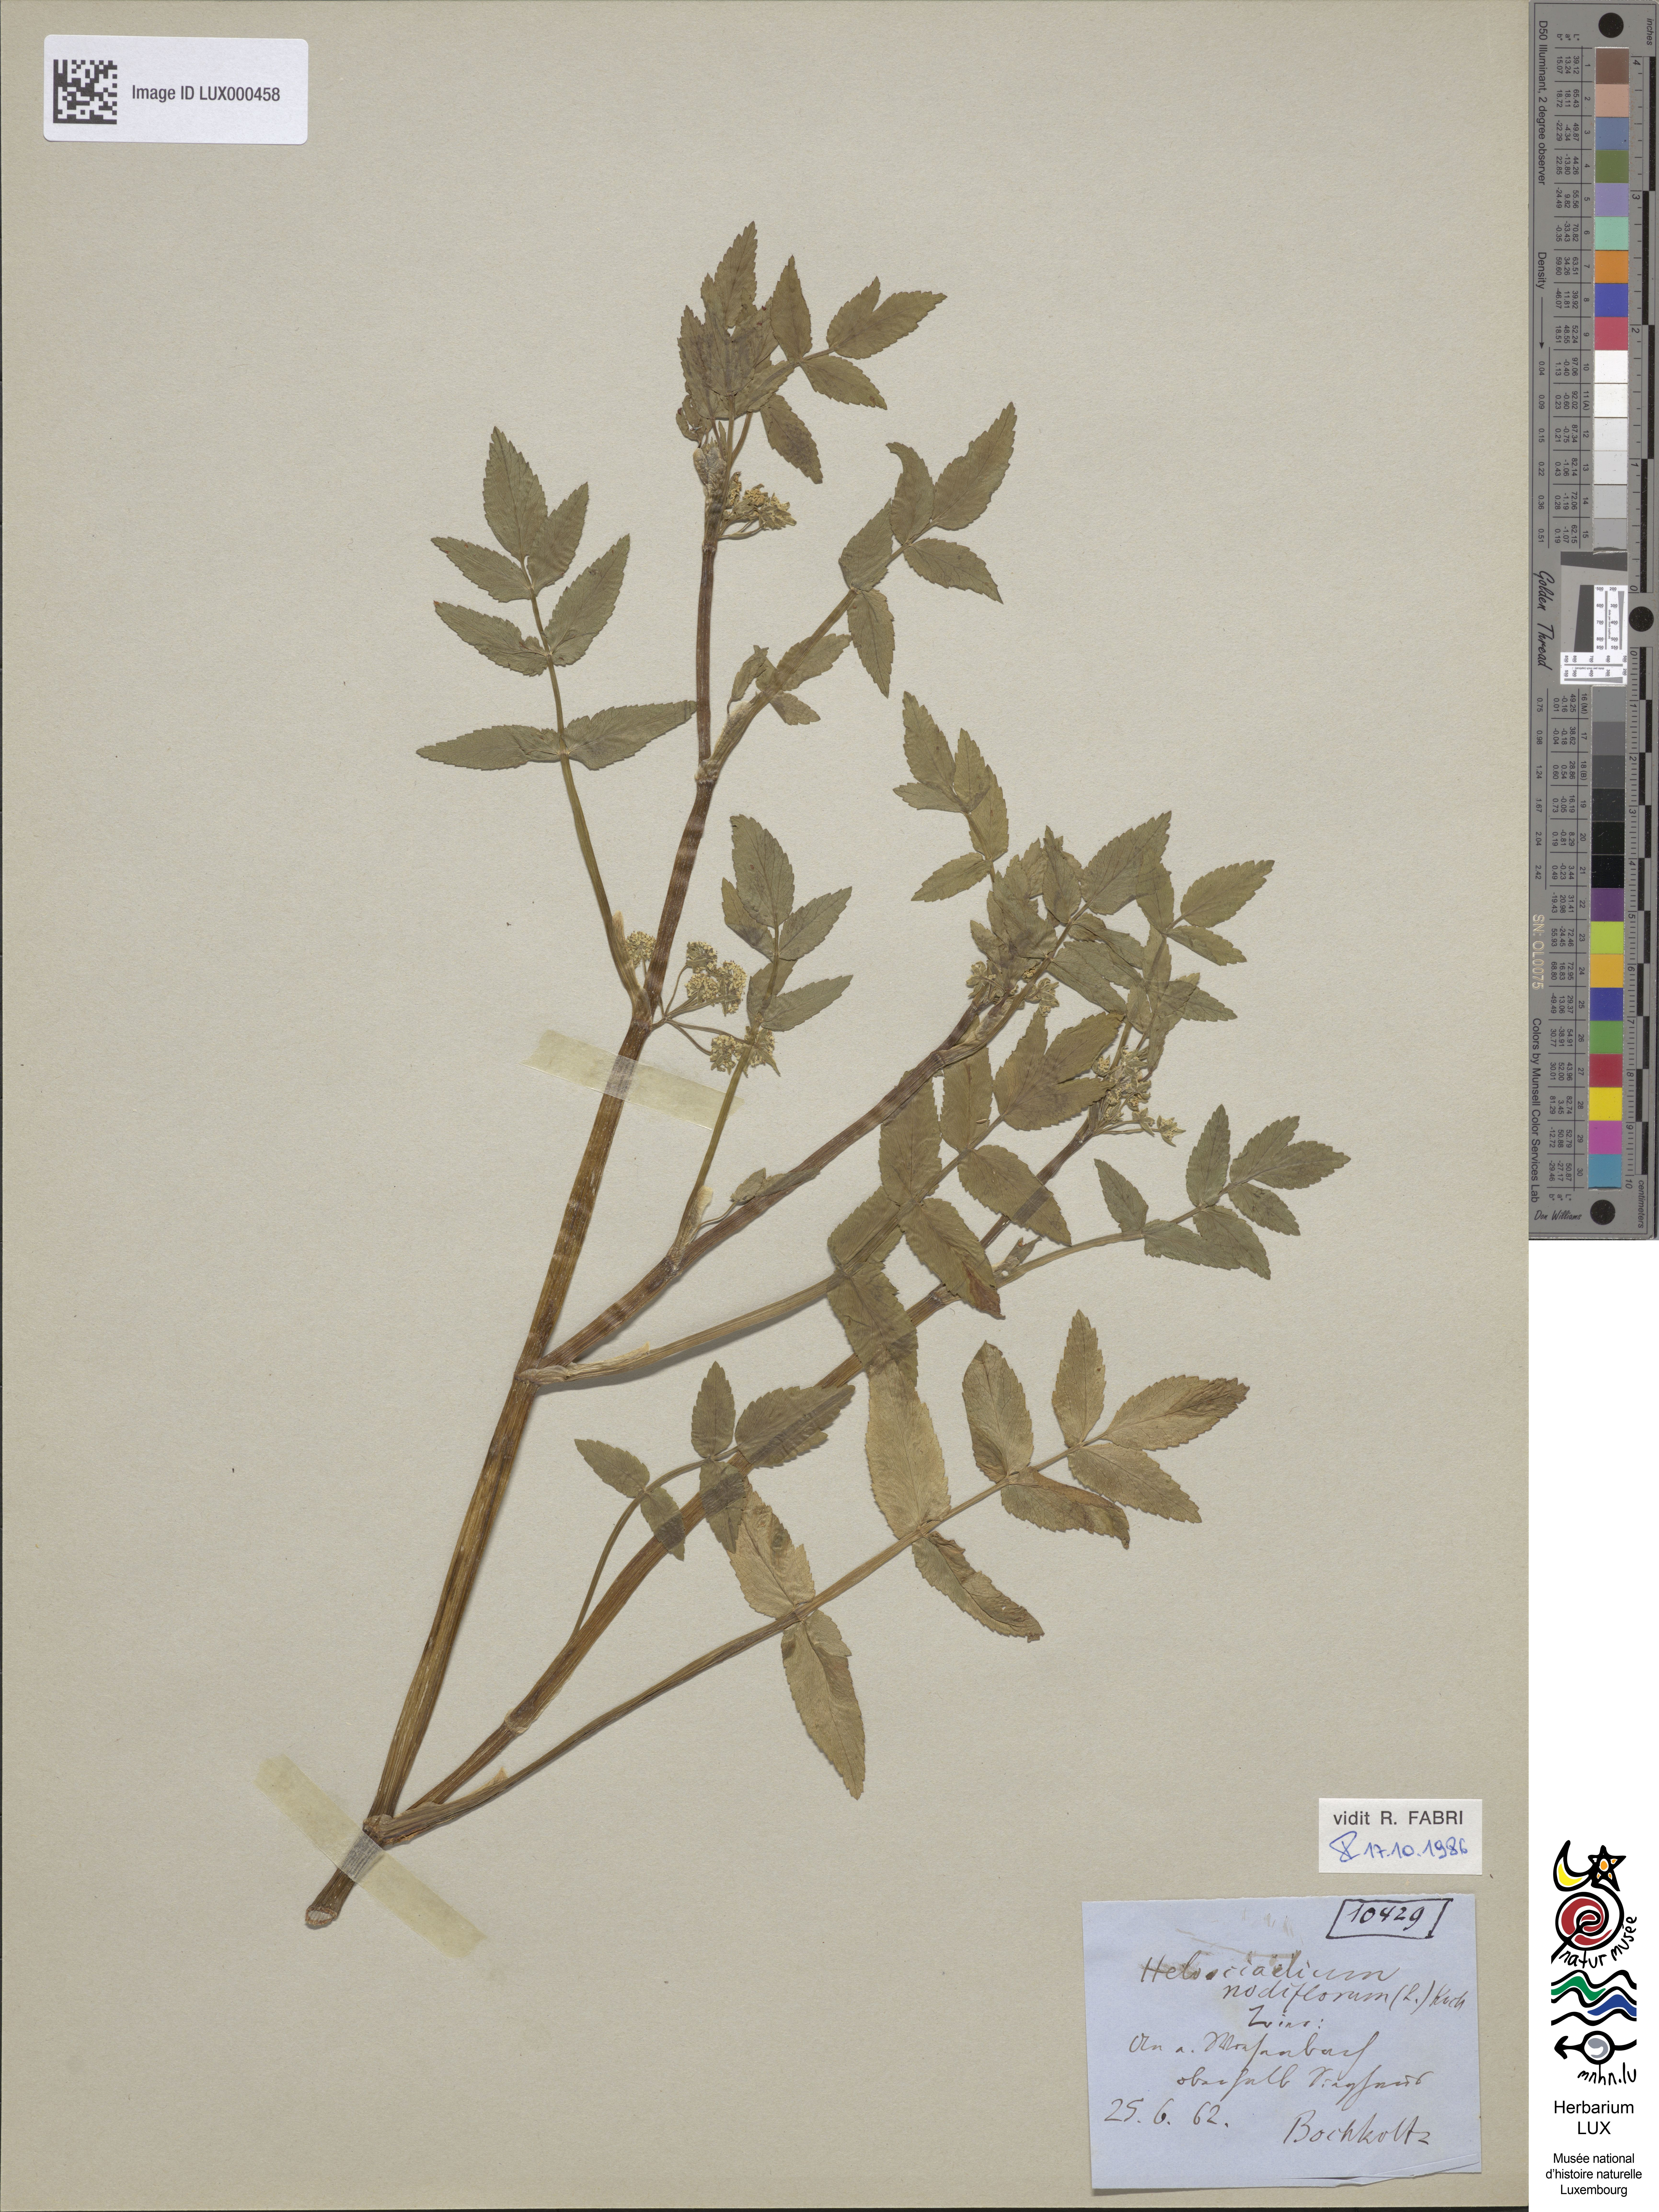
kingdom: Plantae
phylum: Tracheophyta
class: Magnoliopsida
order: Apiales
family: Apiaceae
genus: Helosciadium
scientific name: Helosciadium nodiflorum
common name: Fool's-watercress
